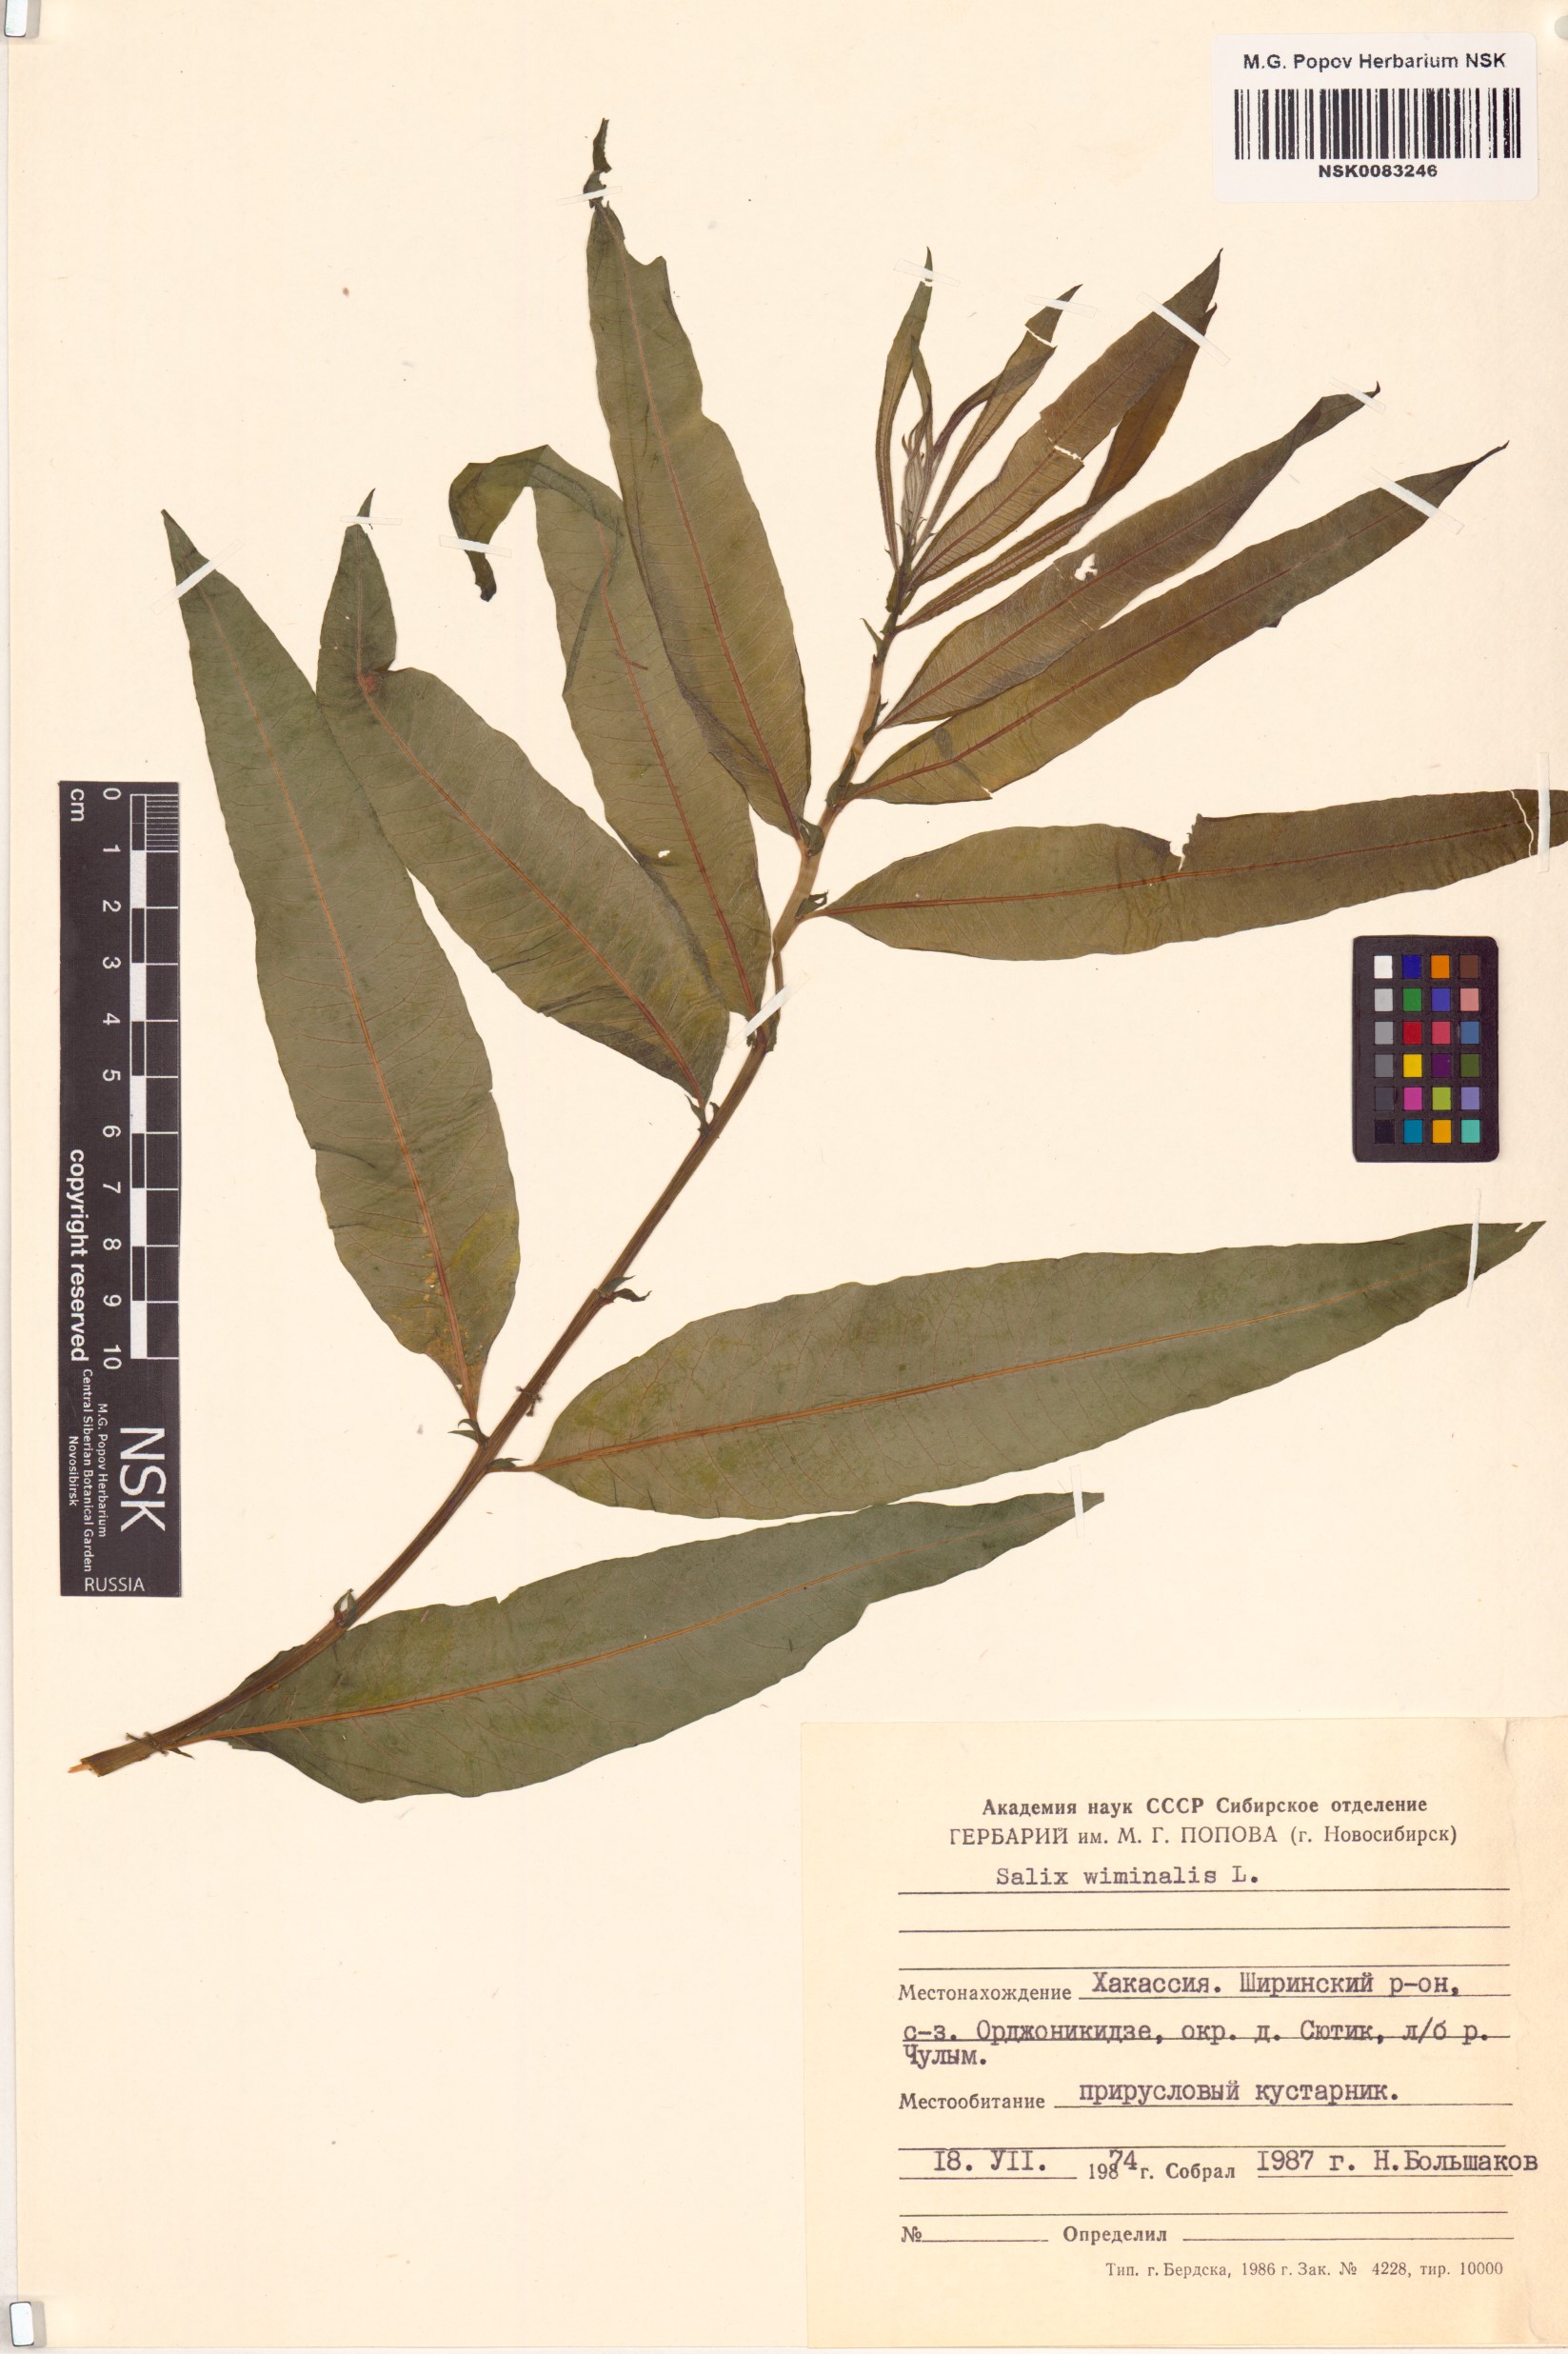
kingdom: Plantae
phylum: Tracheophyta
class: Magnoliopsida
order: Malpighiales
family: Salicaceae
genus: Salix
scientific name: Salix viminalis
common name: Osier
